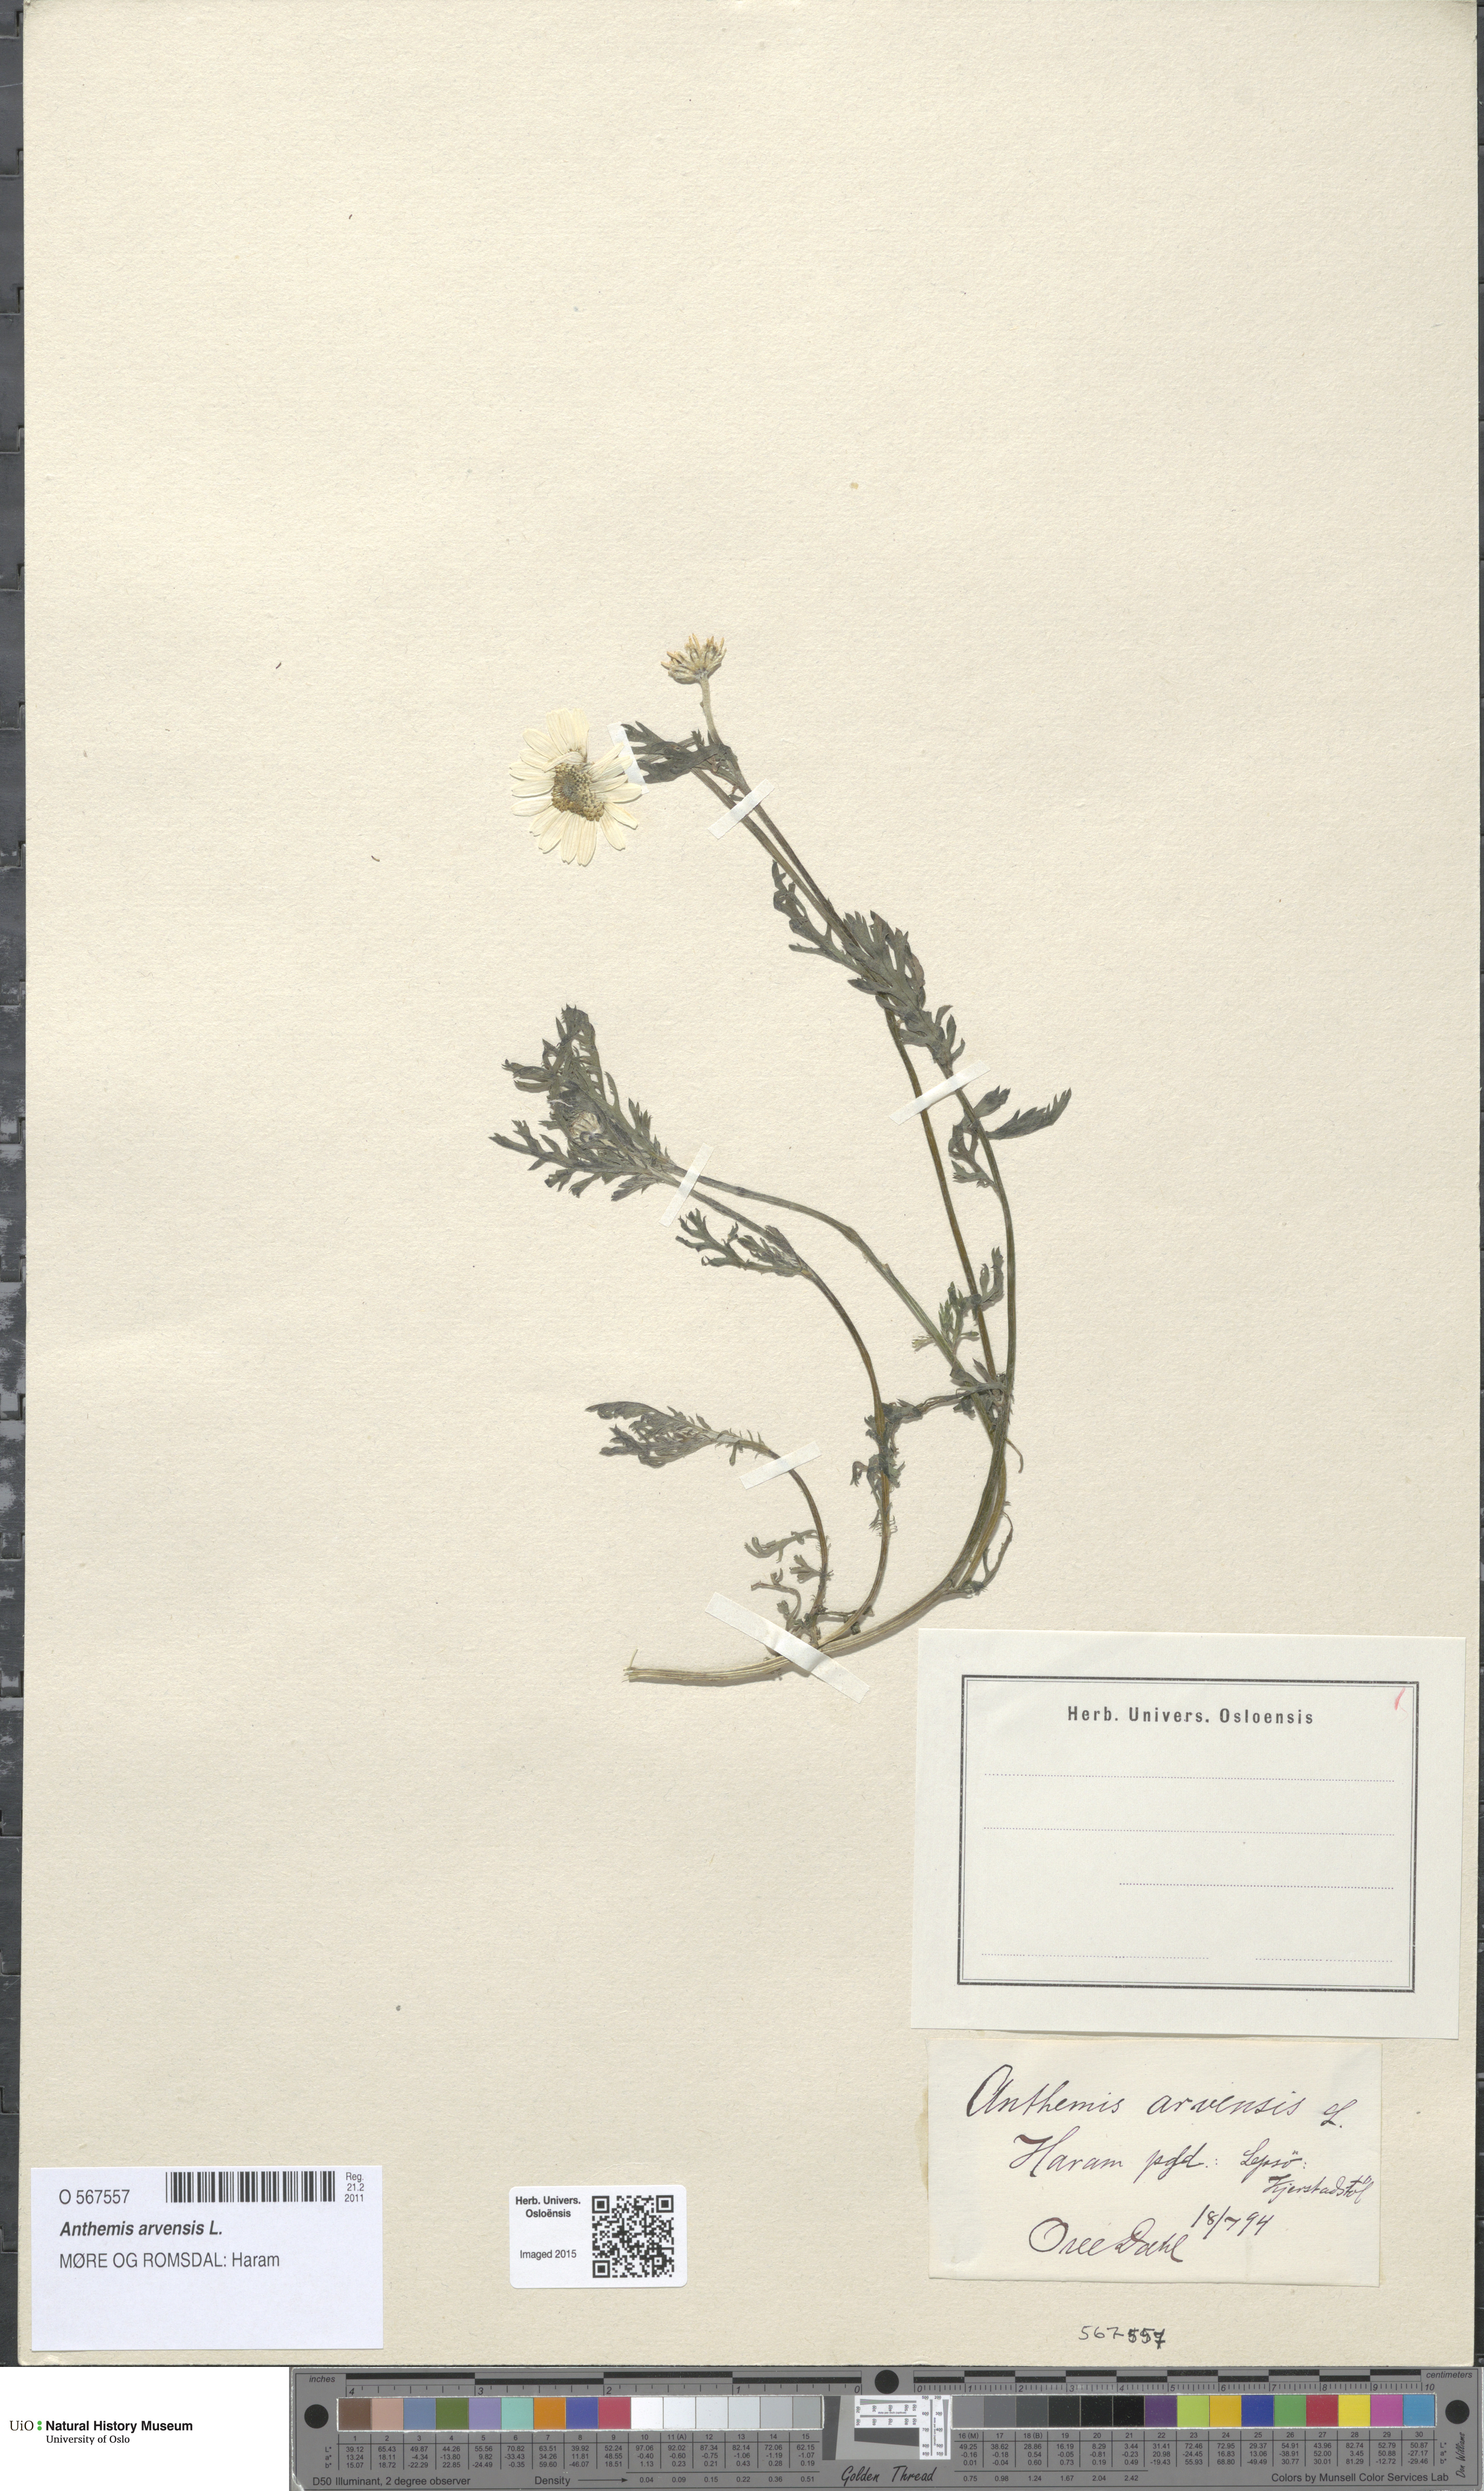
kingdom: Plantae
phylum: Tracheophyta
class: Magnoliopsida
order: Asterales
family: Asteraceae
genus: Anthemis
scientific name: Anthemis arvensis
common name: Corn chamomile
